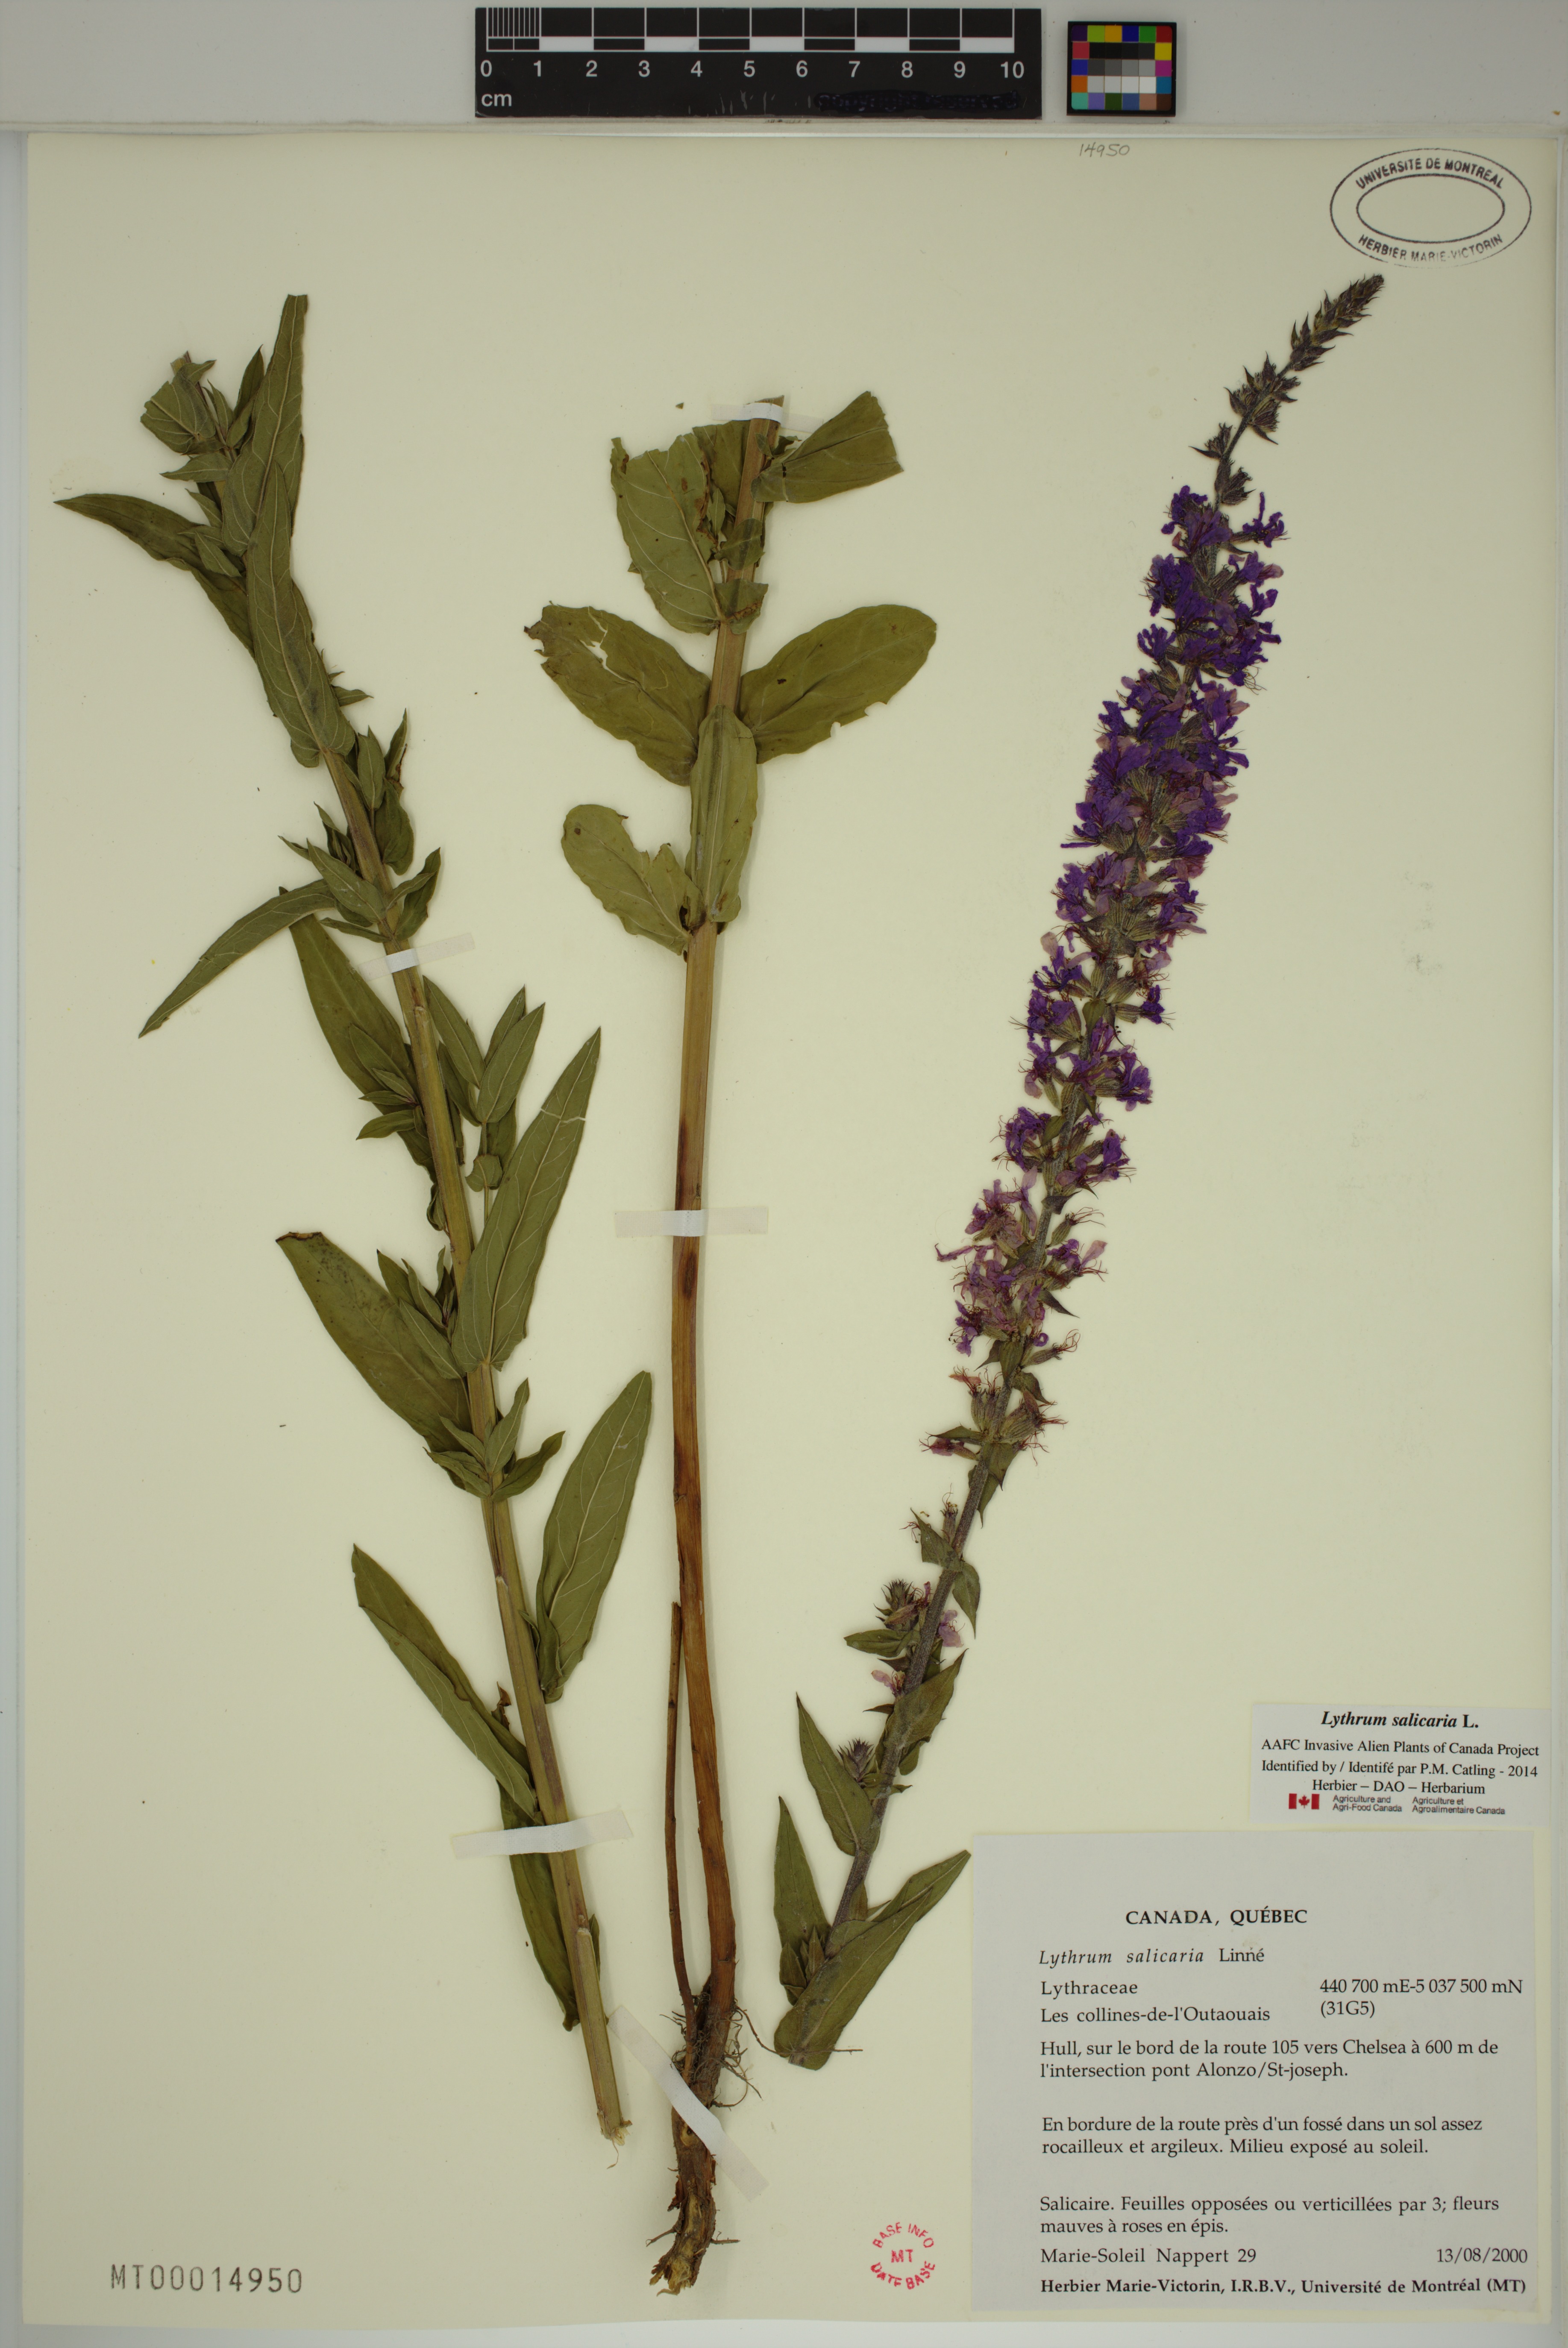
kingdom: Plantae
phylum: Tracheophyta
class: Magnoliopsida
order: Myrtales
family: Lythraceae
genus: Lythrum
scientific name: Lythrum salicaria
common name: Purple loosestrife
